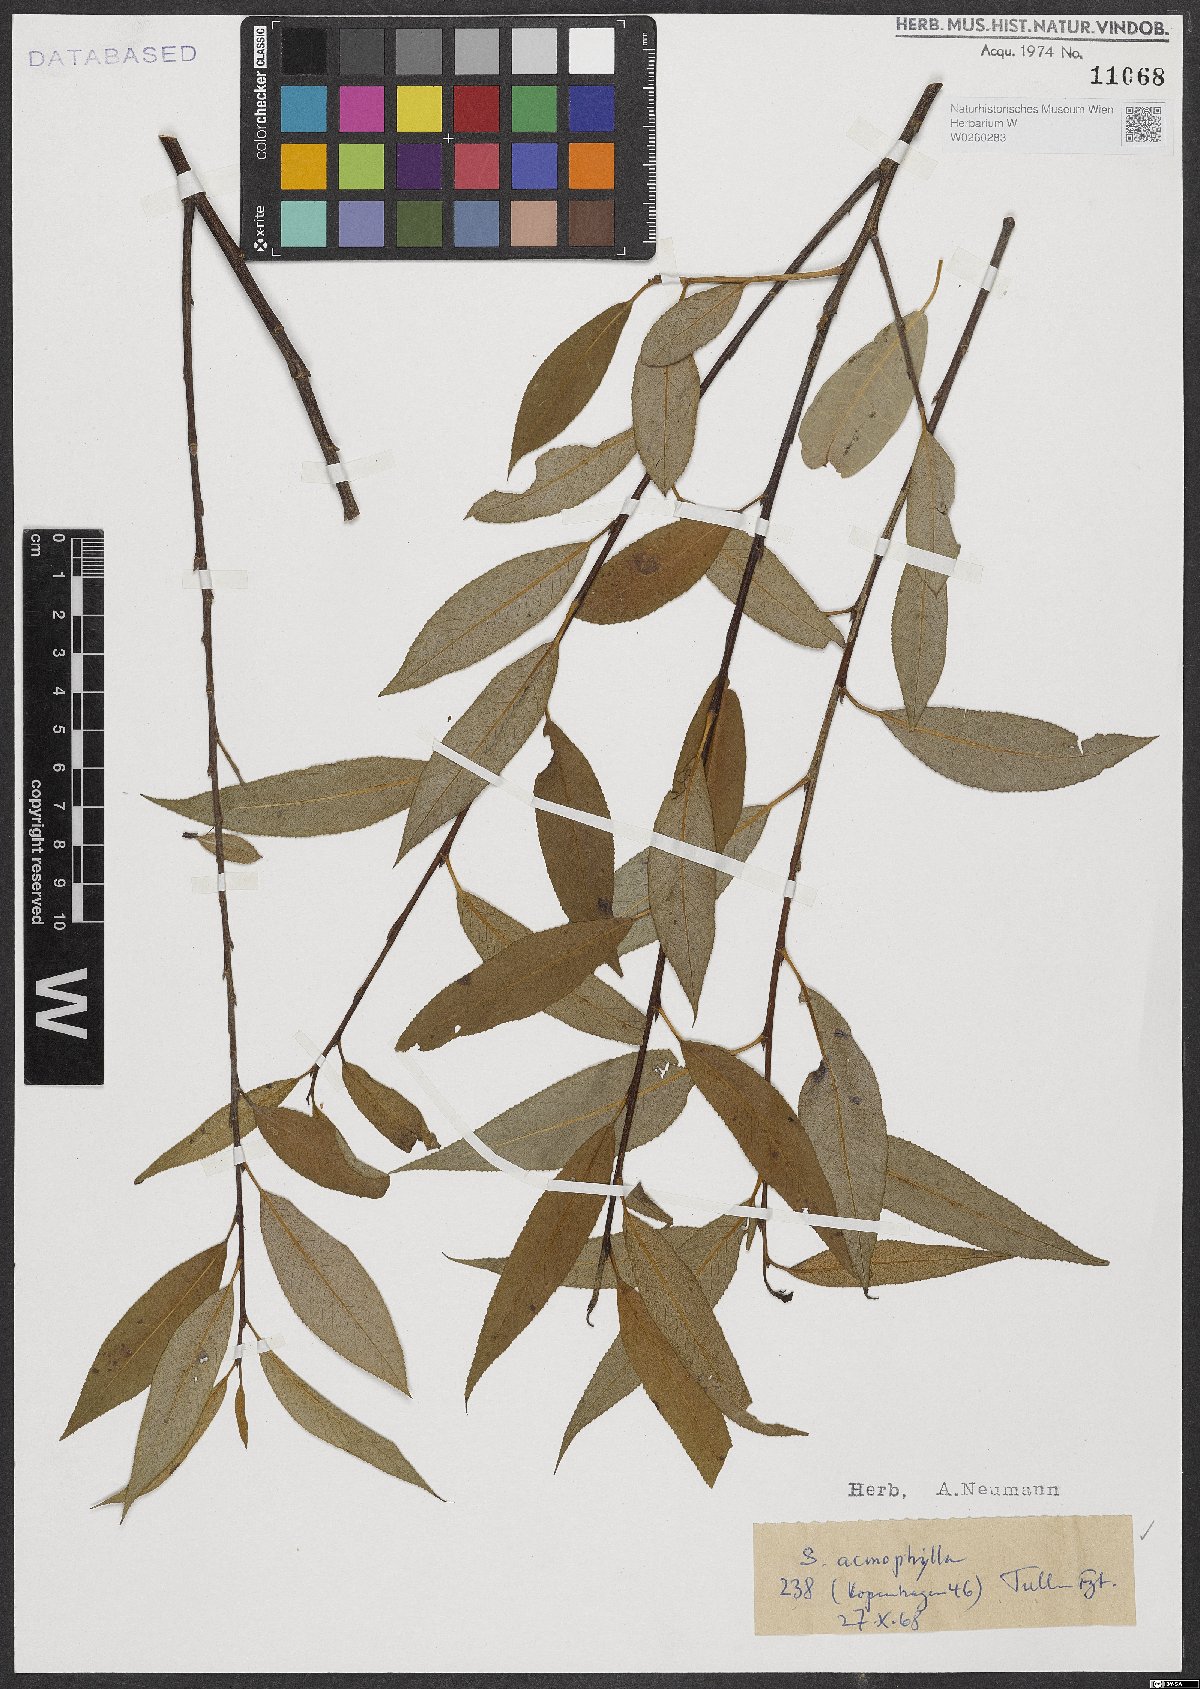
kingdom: Plantae
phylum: Tracheophyta
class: Magnoliopsida
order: Malpighiales
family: Salicaceae
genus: Salix
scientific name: Salix acmophylla
